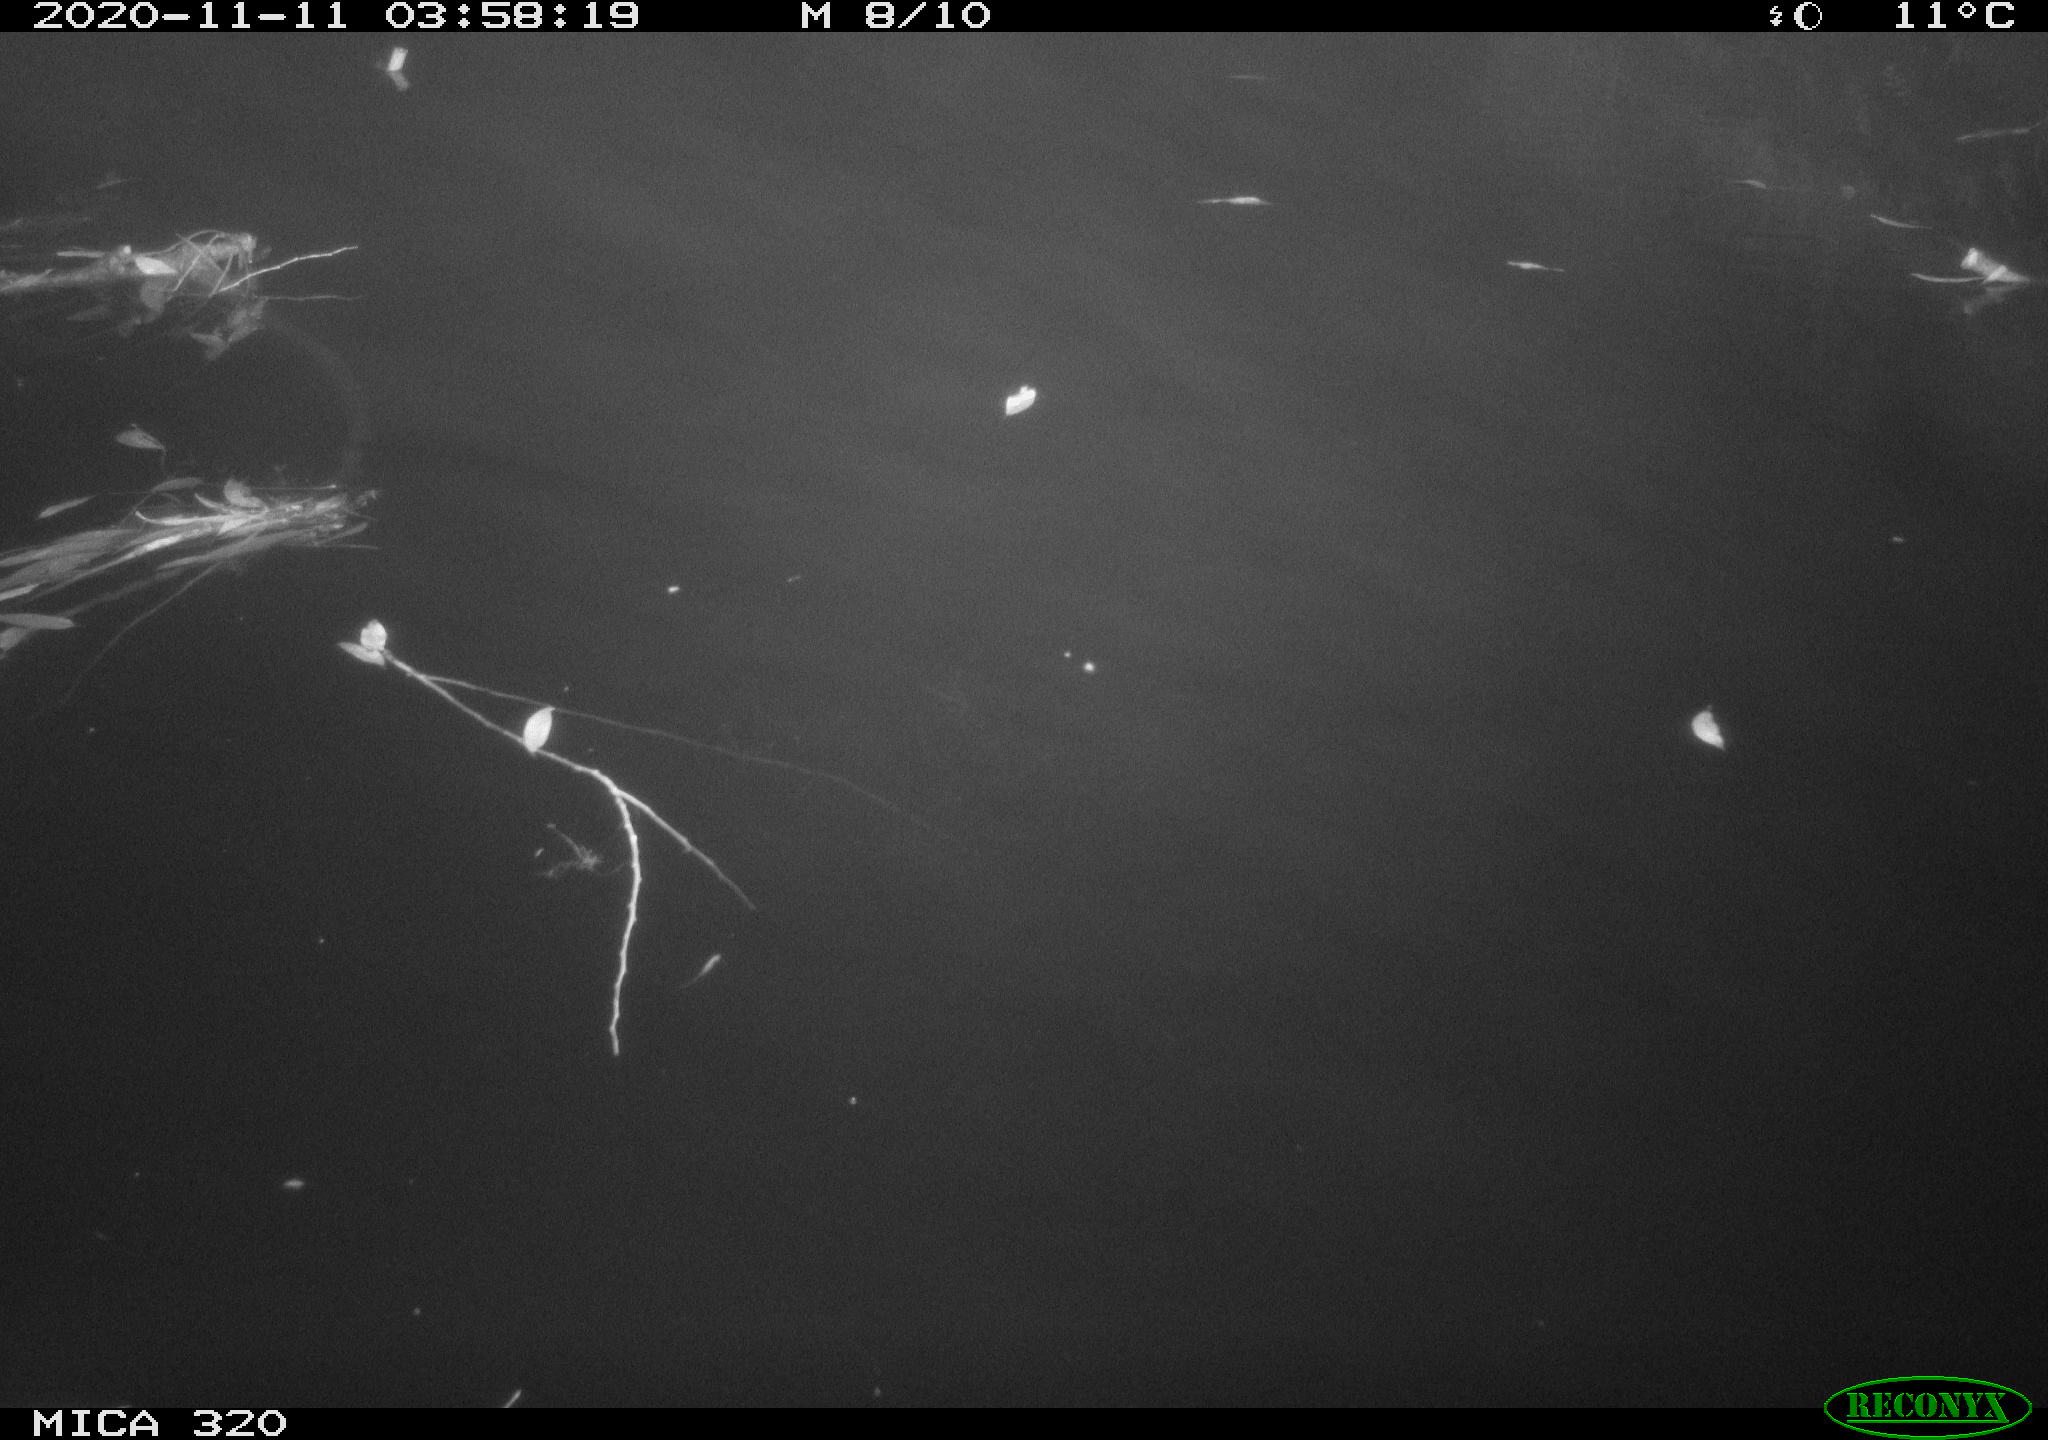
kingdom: Animalia
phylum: Chordata
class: Mammalia
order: Soricomorpha
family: Soricidae
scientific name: Soricidae
